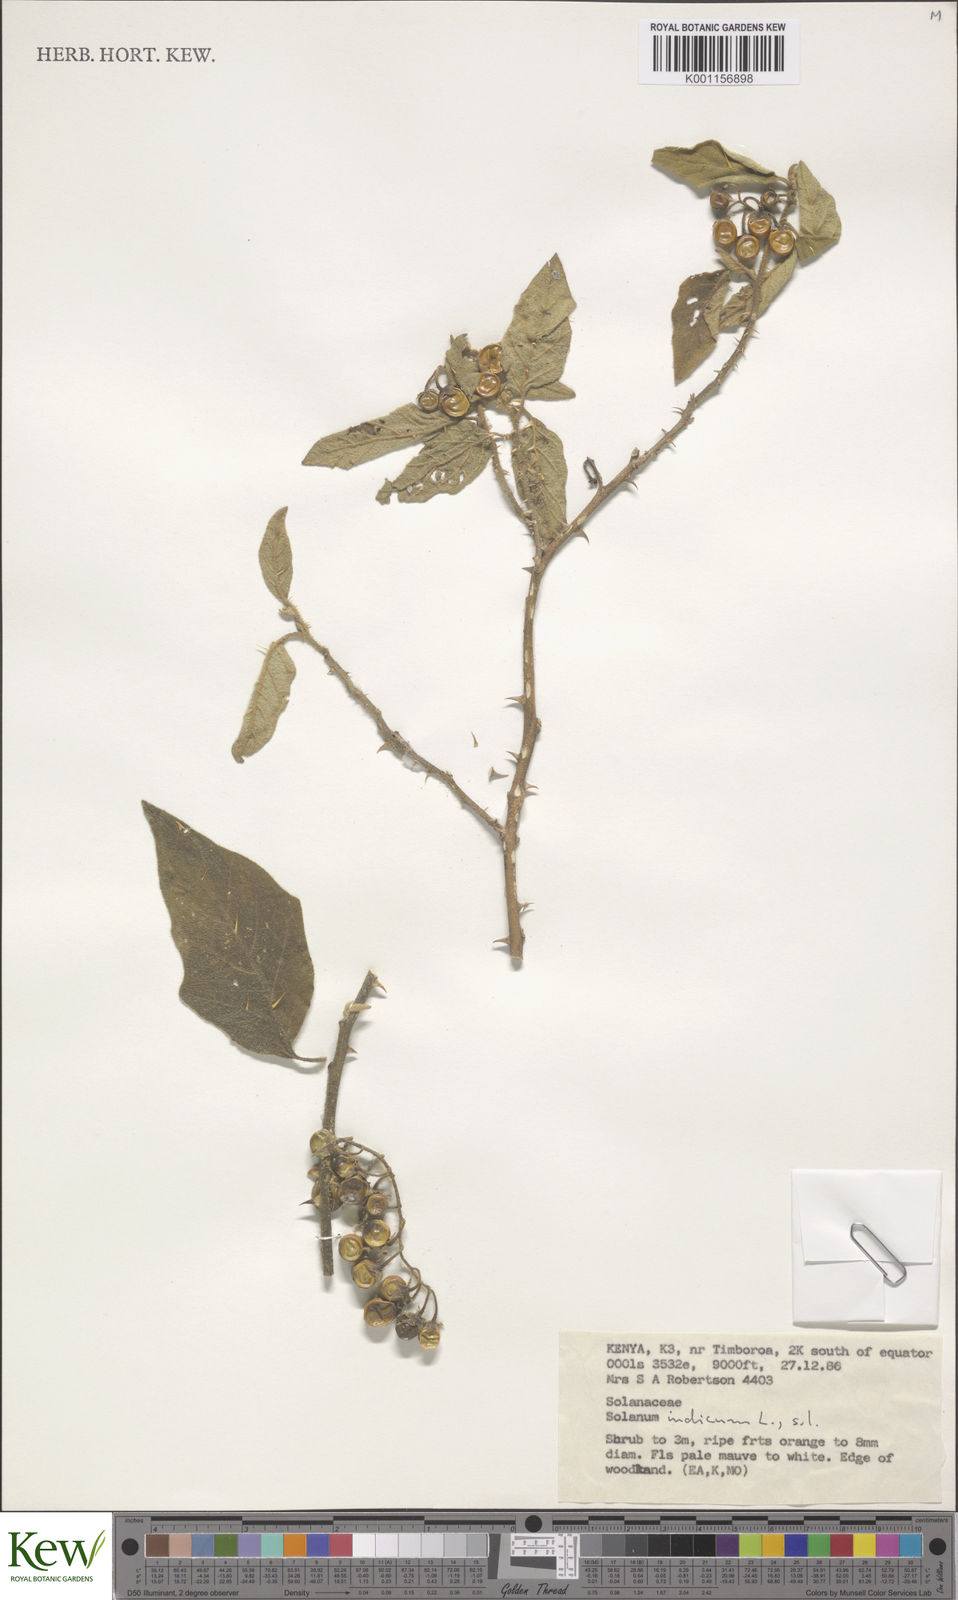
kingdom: Plantae
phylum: Tracheophyta
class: Magnoliopsida
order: Solanales
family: Solanaceae
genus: Solanum
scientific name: Solanum anguivi
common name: Forest bitterberry
